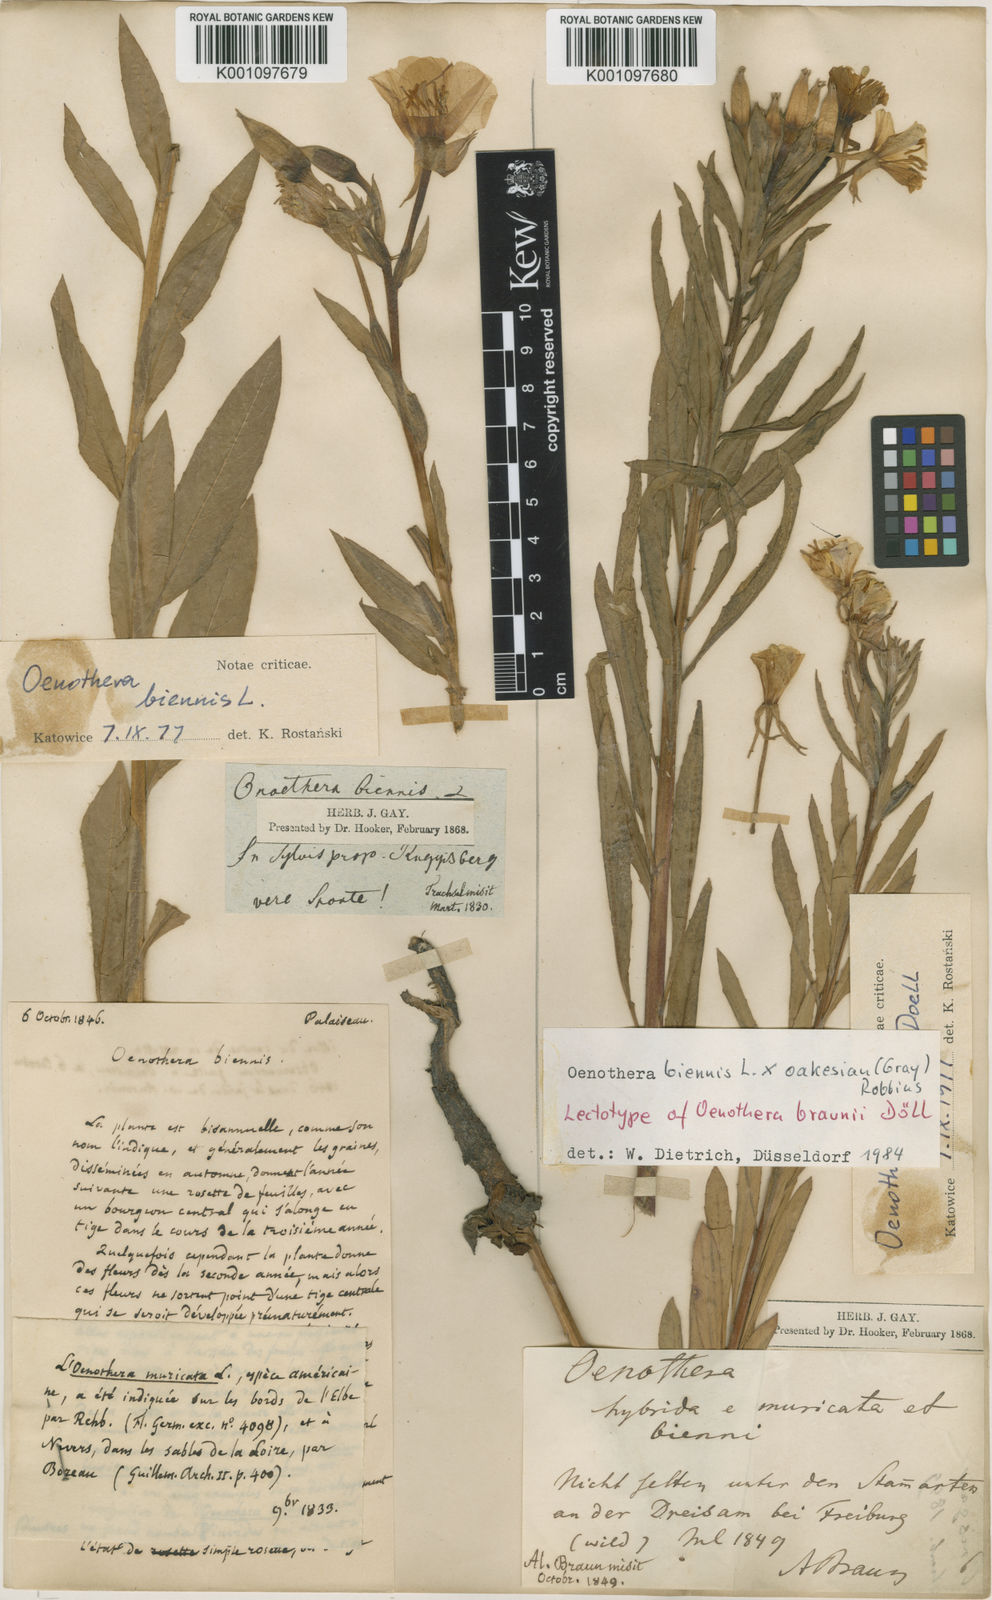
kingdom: Plantae
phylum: Tracheophyta
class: Magnoliopsida
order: Myrtales
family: Onagraceae
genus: Oenothera
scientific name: Oenothera biennis
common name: Common evening-primrose
